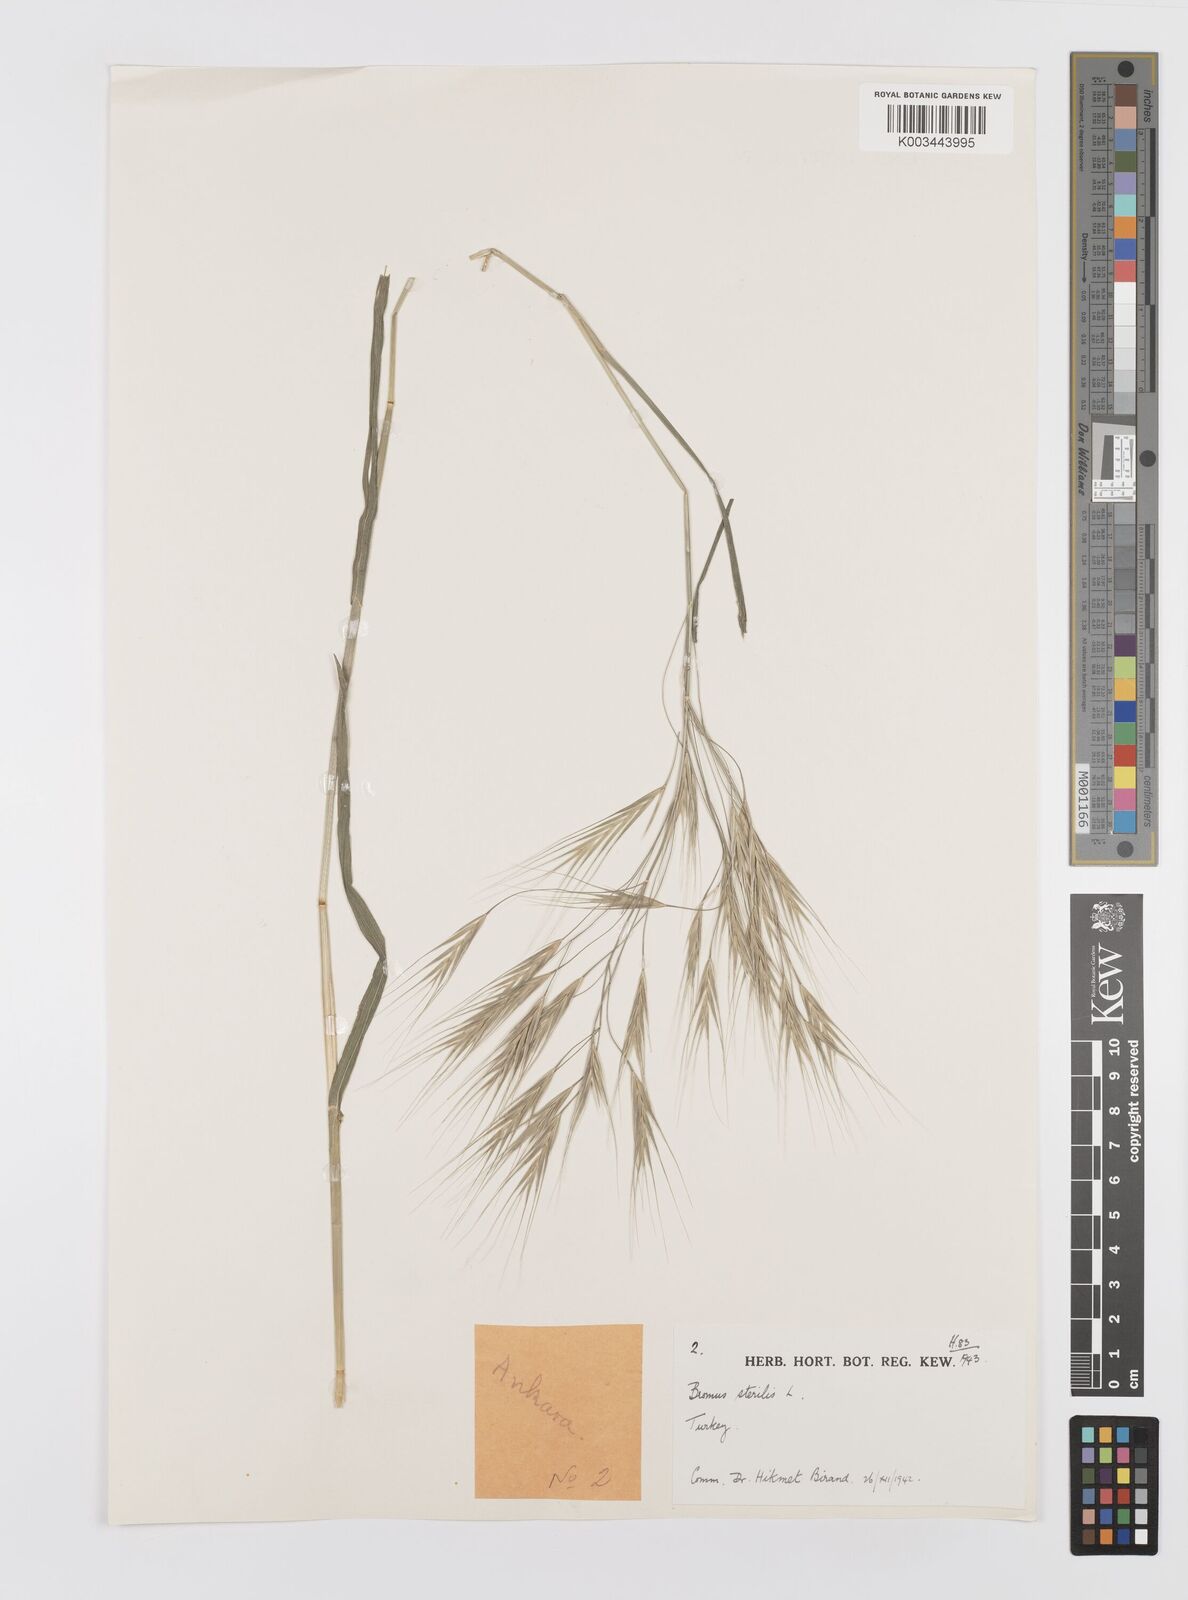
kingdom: Plantae
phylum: Tracheophyta
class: Liliopsida
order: Poales
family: Poaceae
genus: Bromus
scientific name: Bromus sterilis
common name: Poverty brome
